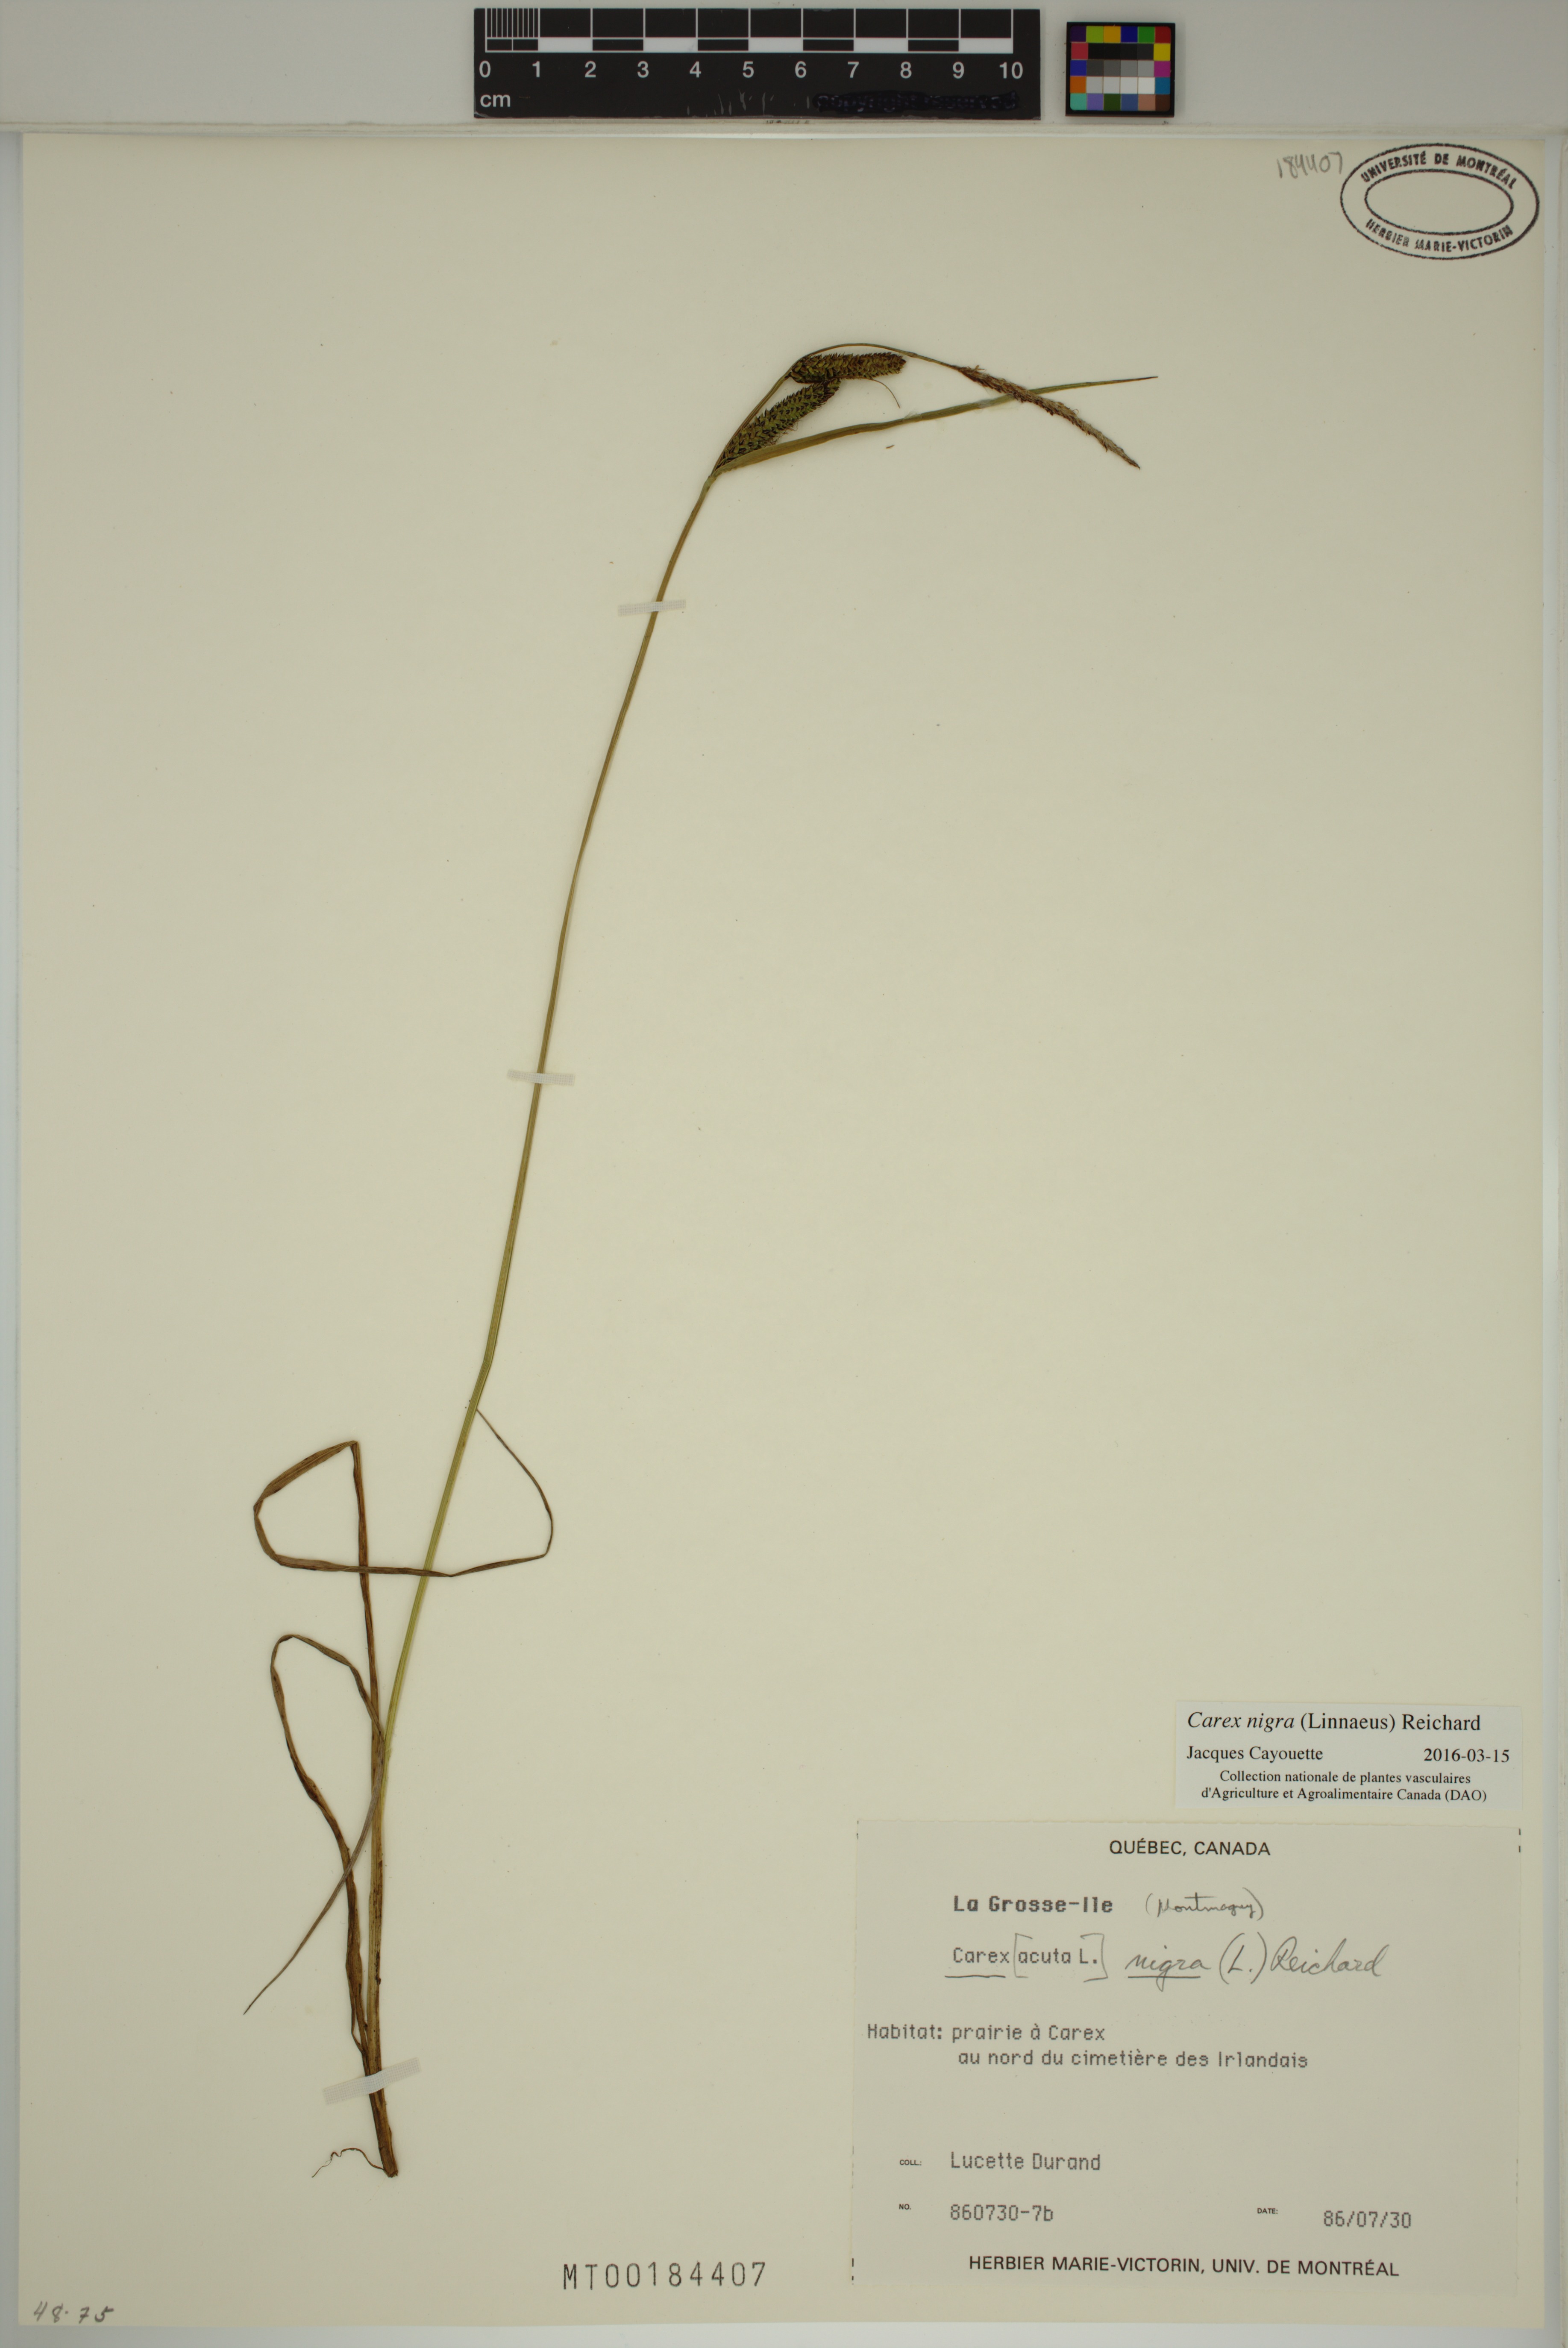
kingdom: Plantae
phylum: Tracheophyta
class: Liliopsida
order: Poales
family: Cyperaceae
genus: Carex
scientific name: Carex nigra
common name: Common sedge
